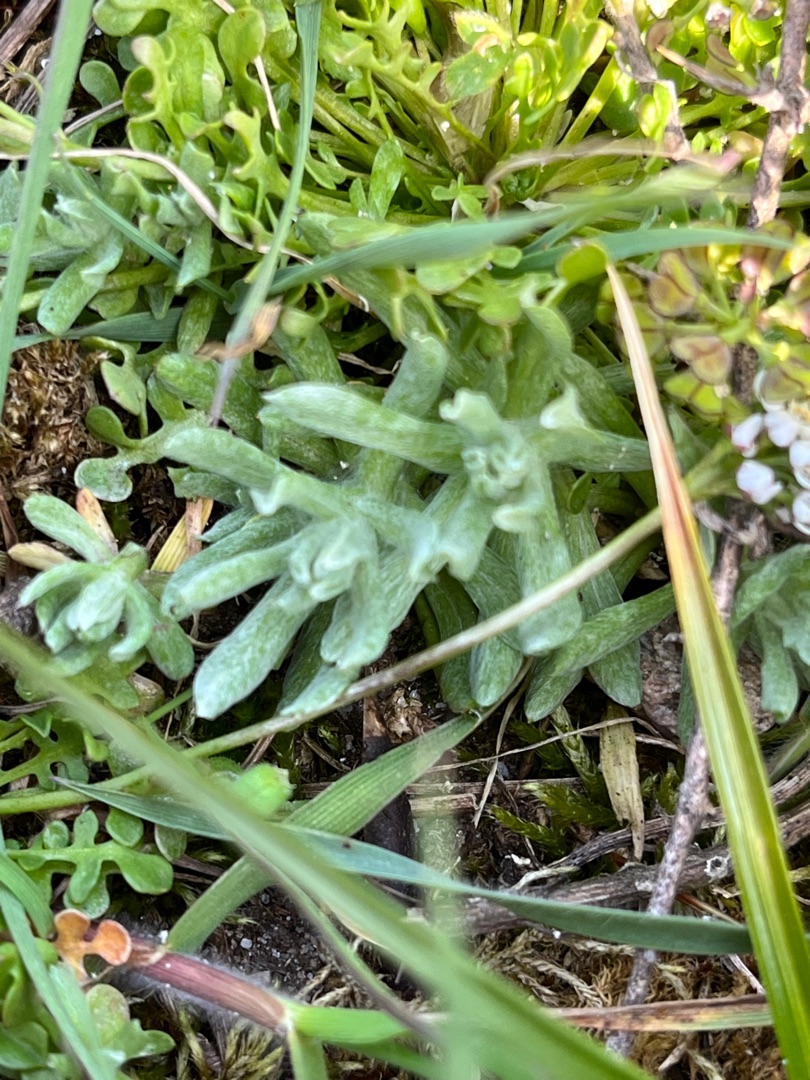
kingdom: Plantae
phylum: Tracheophyta
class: Magnoliopsida
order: Asterales
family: Asteraceae
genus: Filago
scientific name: Filago germanica
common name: Kugle-museurt
